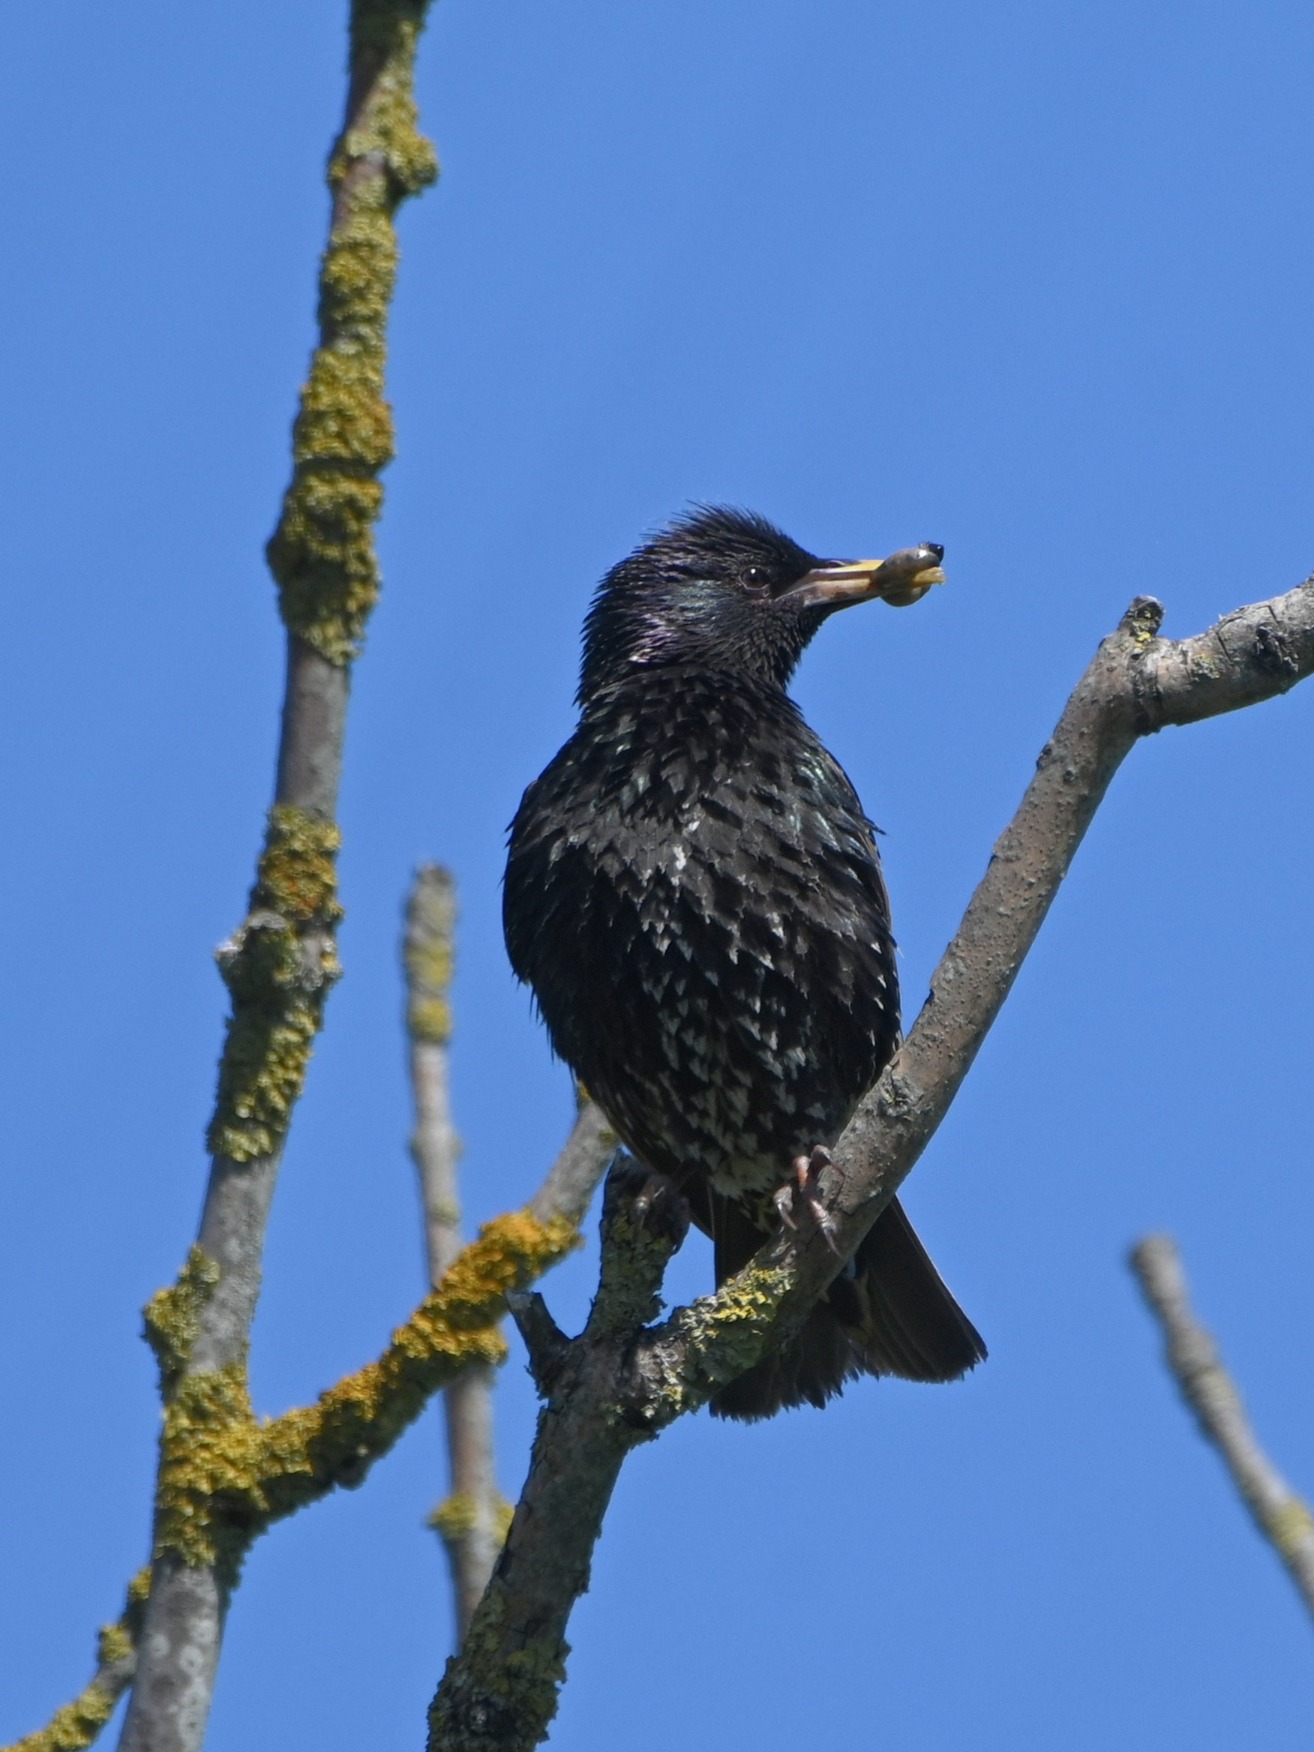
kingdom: Animalia
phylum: Chordata
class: Aves
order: Passeriformes
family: Sturnidae
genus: Sturnus
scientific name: Sturnus vulgaris
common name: Stær
